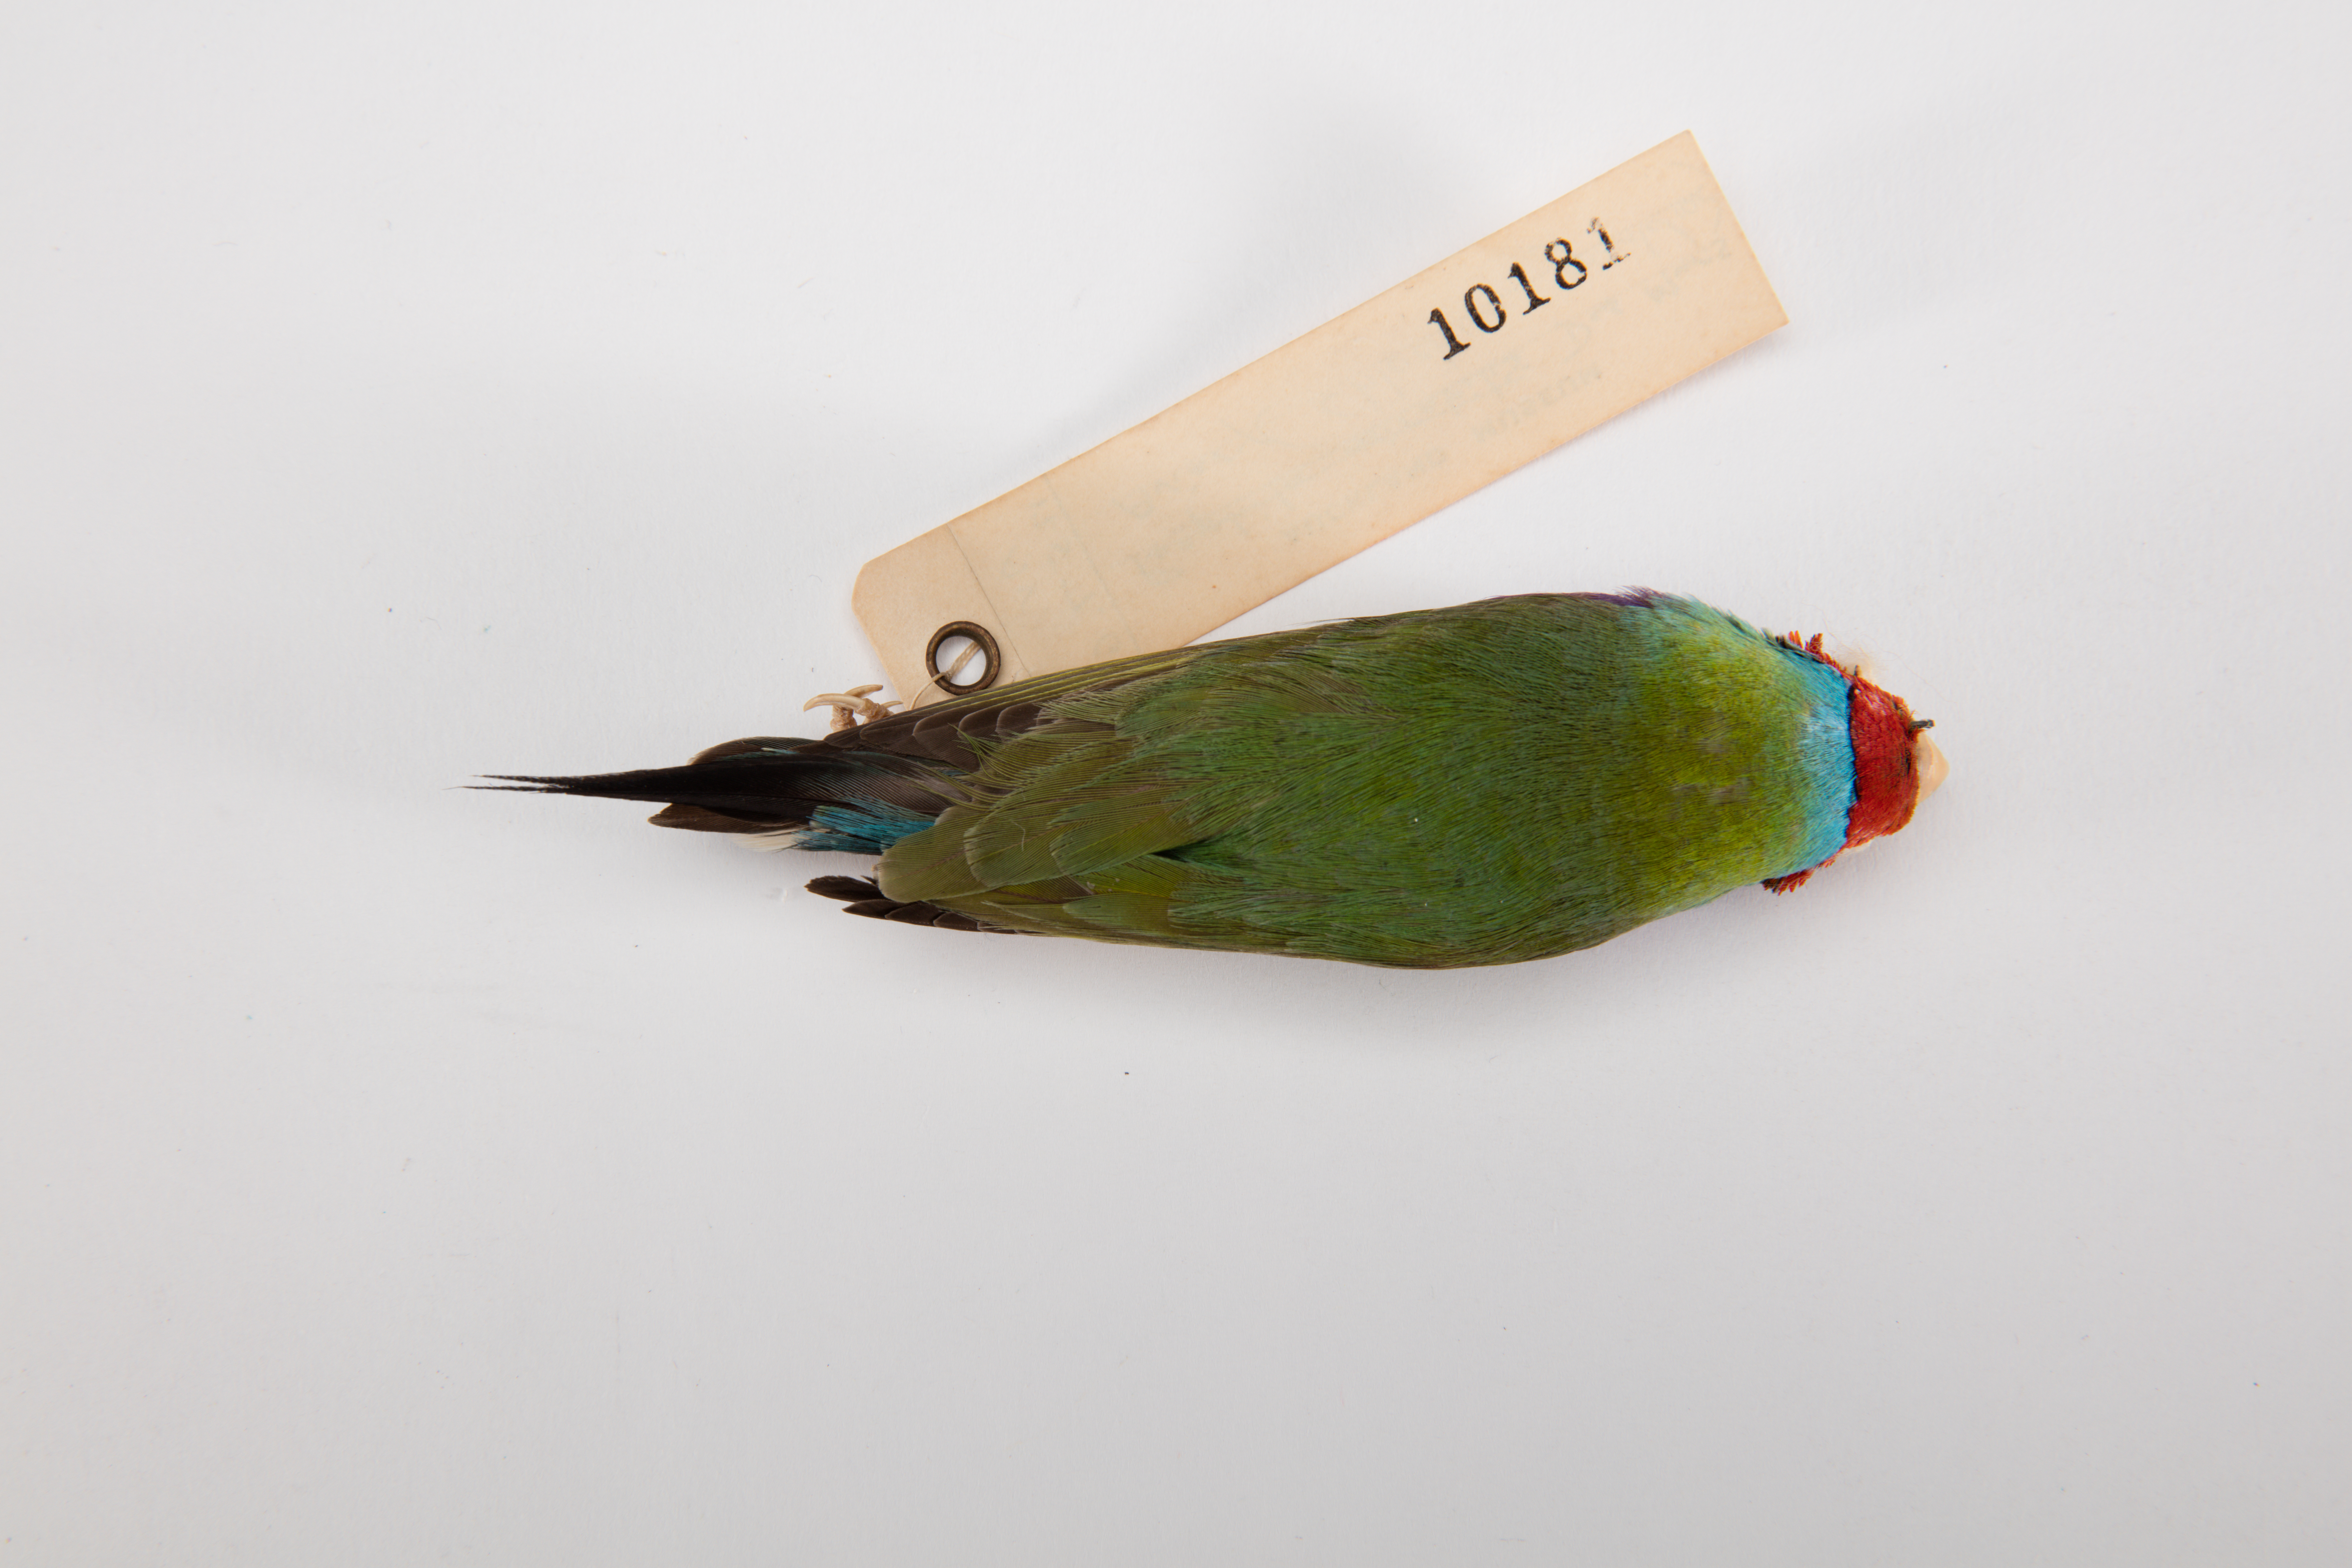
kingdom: Animalia
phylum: Chordata
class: Aves
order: Passeriformes
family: Estrildidae
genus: Erythrura
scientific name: Erythrura gouldiae
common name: Gouldian finch
